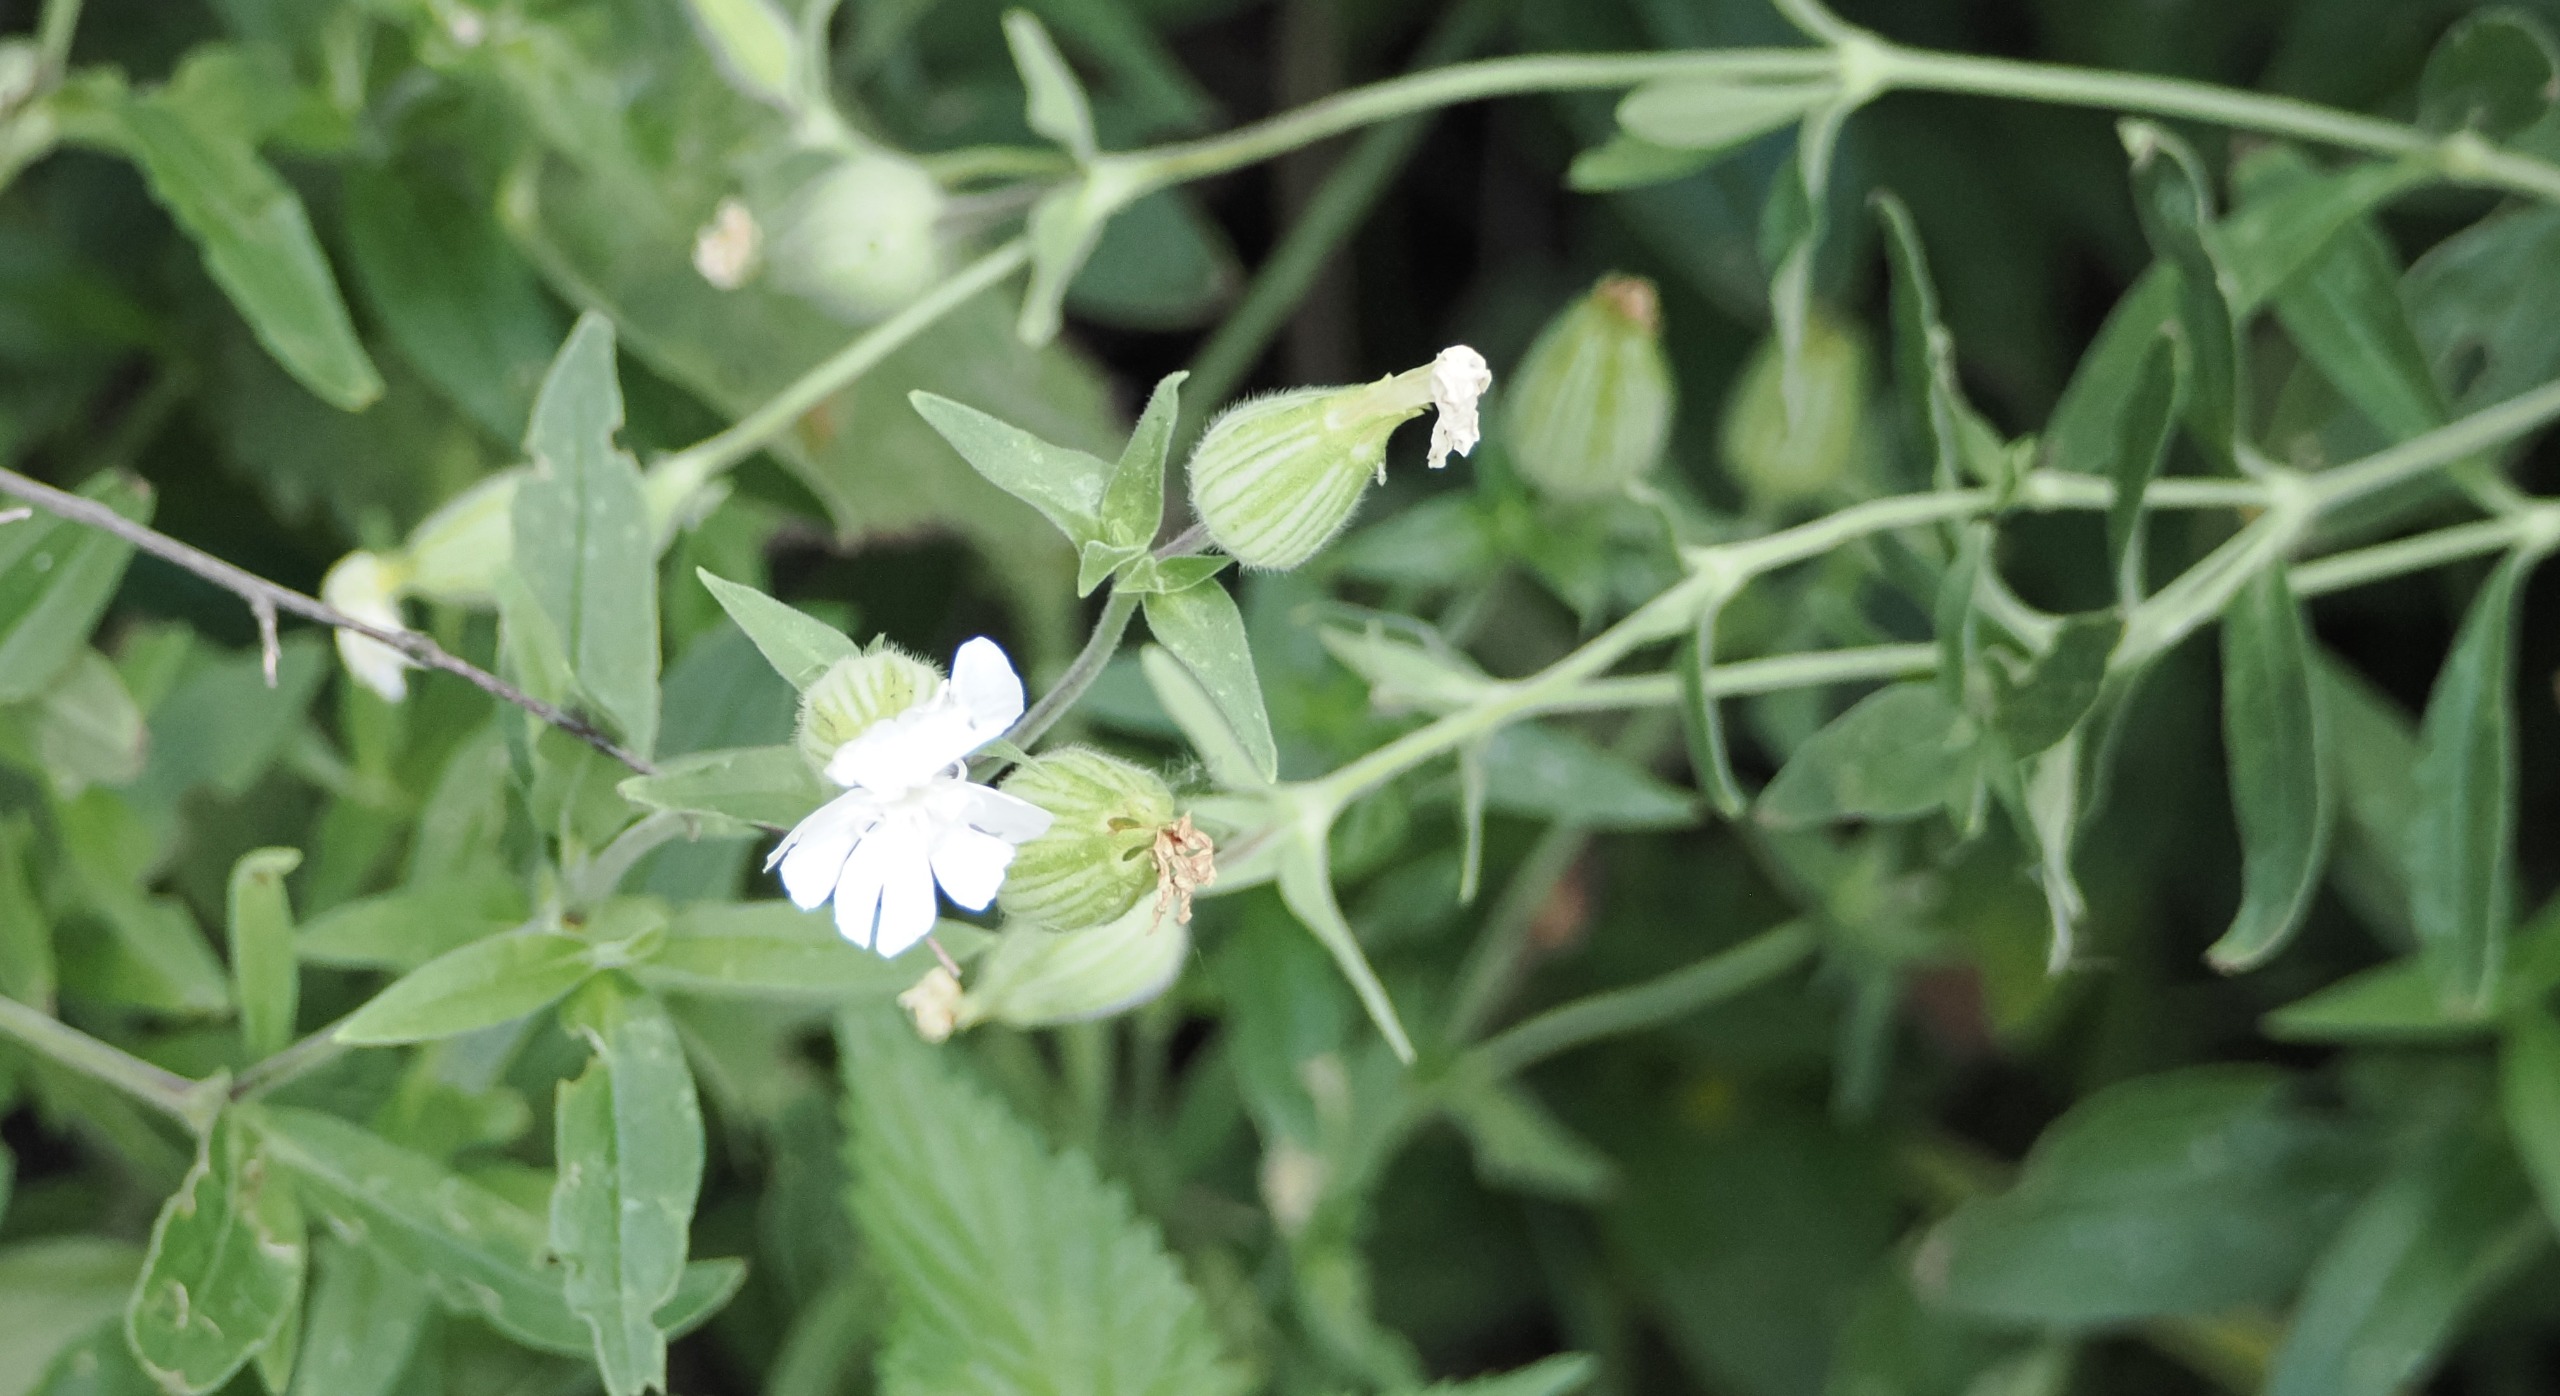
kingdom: Plantae
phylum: Tracheophyta
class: Magnoliopsida
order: Caryophyllales
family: Caryophyllaceae
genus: Silene
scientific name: Silene latifolia
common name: Aftenpragtstjerne
